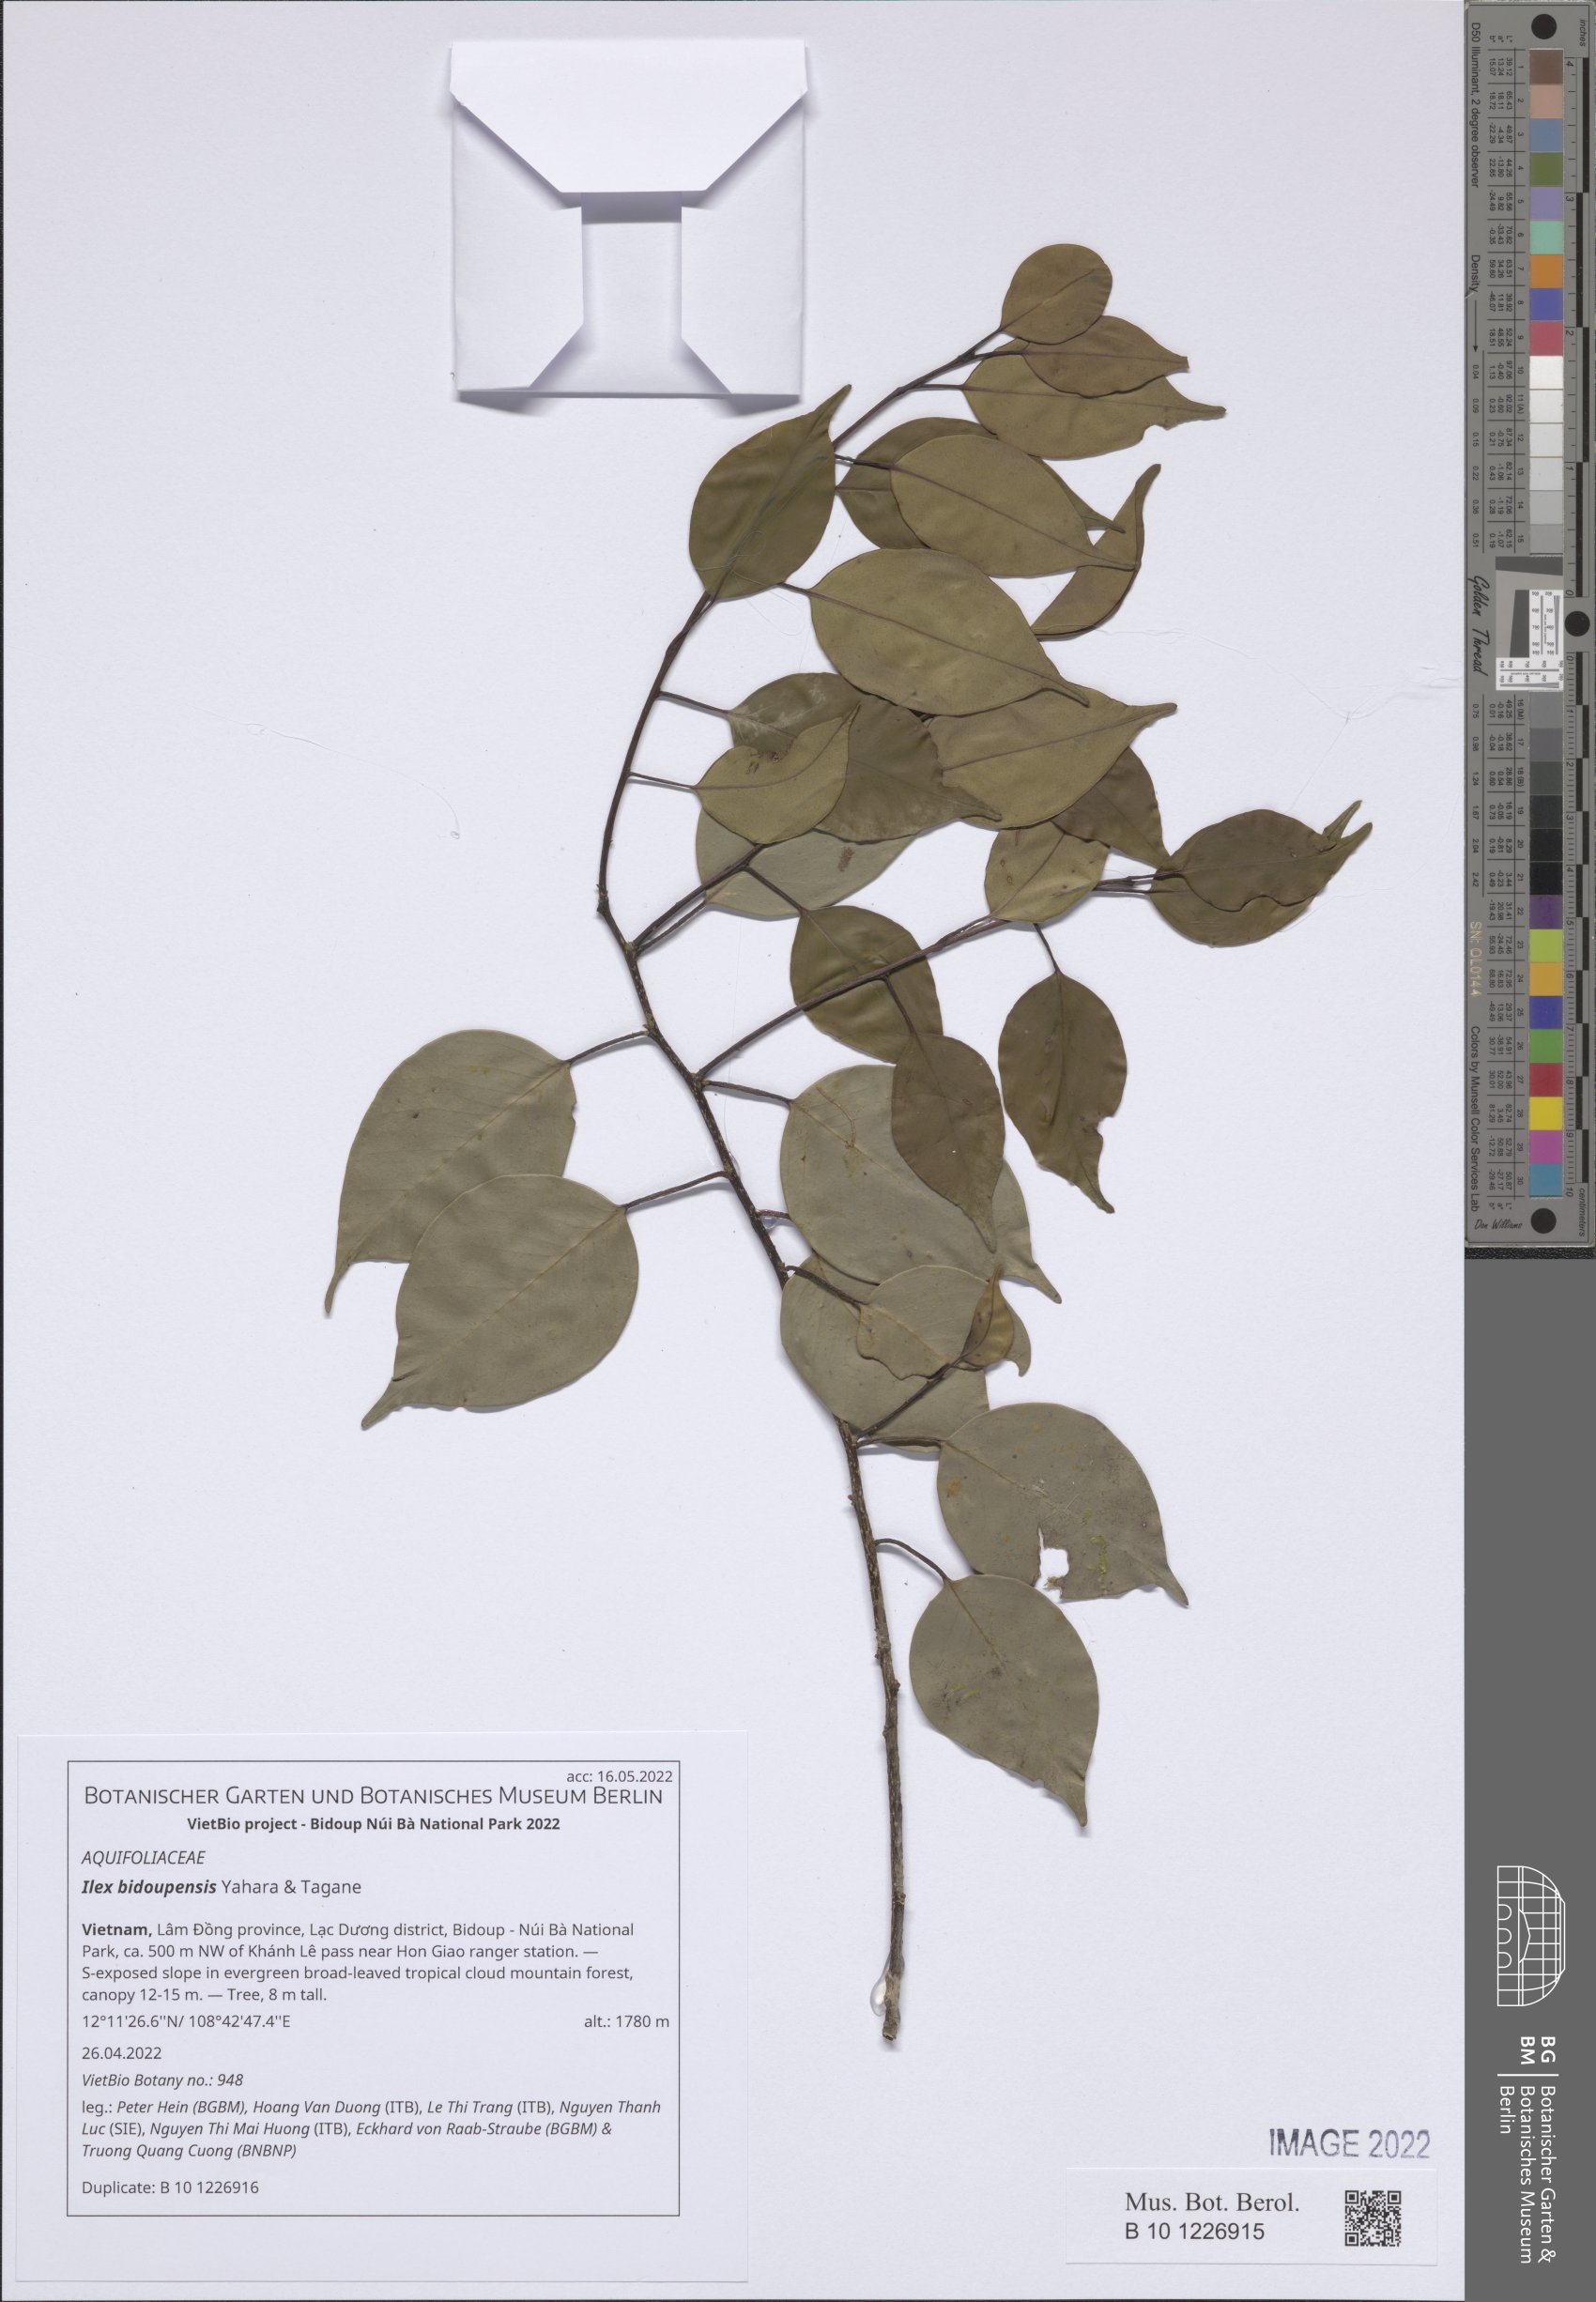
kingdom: Plantae
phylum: Tracheophyta
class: Magnoliopsida
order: Aquifoliales
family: Aquifoliaceae
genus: Ilex
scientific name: Ilex bidoupensis
